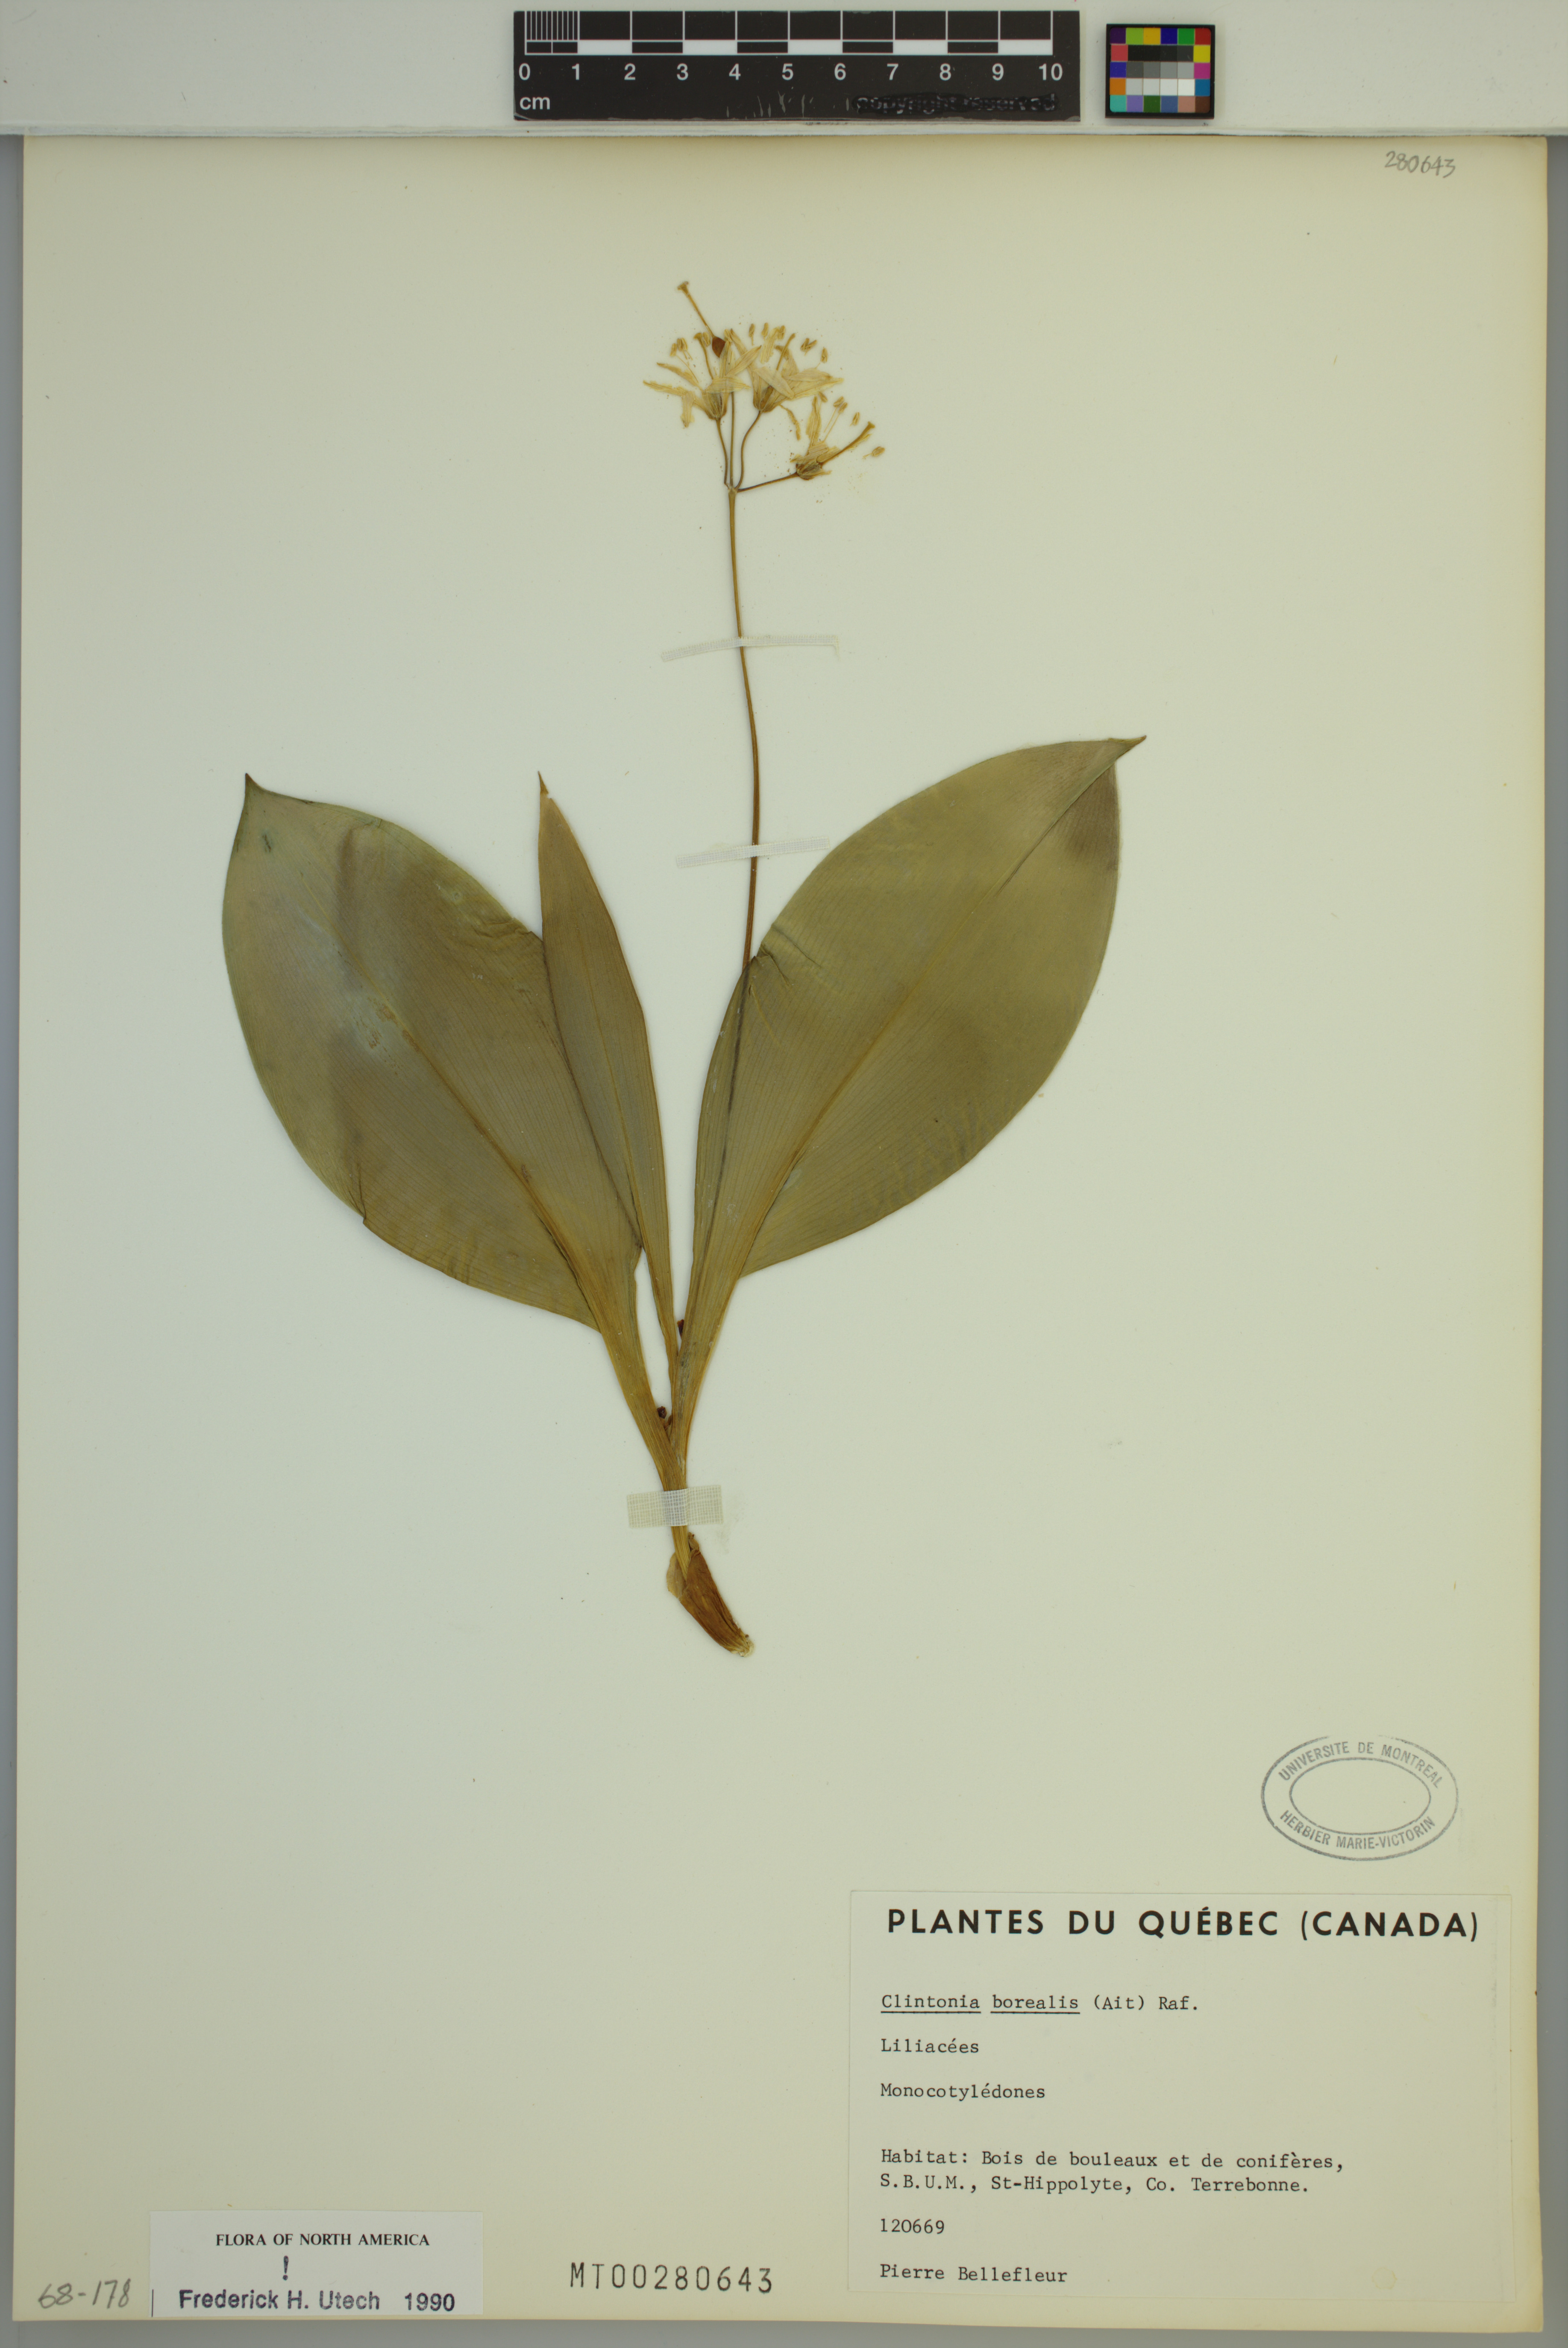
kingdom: Plantae
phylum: Tracheophyta
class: Liliopsida
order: Liliales
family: Liliaceae
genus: Clintonia
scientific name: Clintonia borealis
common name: Yellow clintonia
